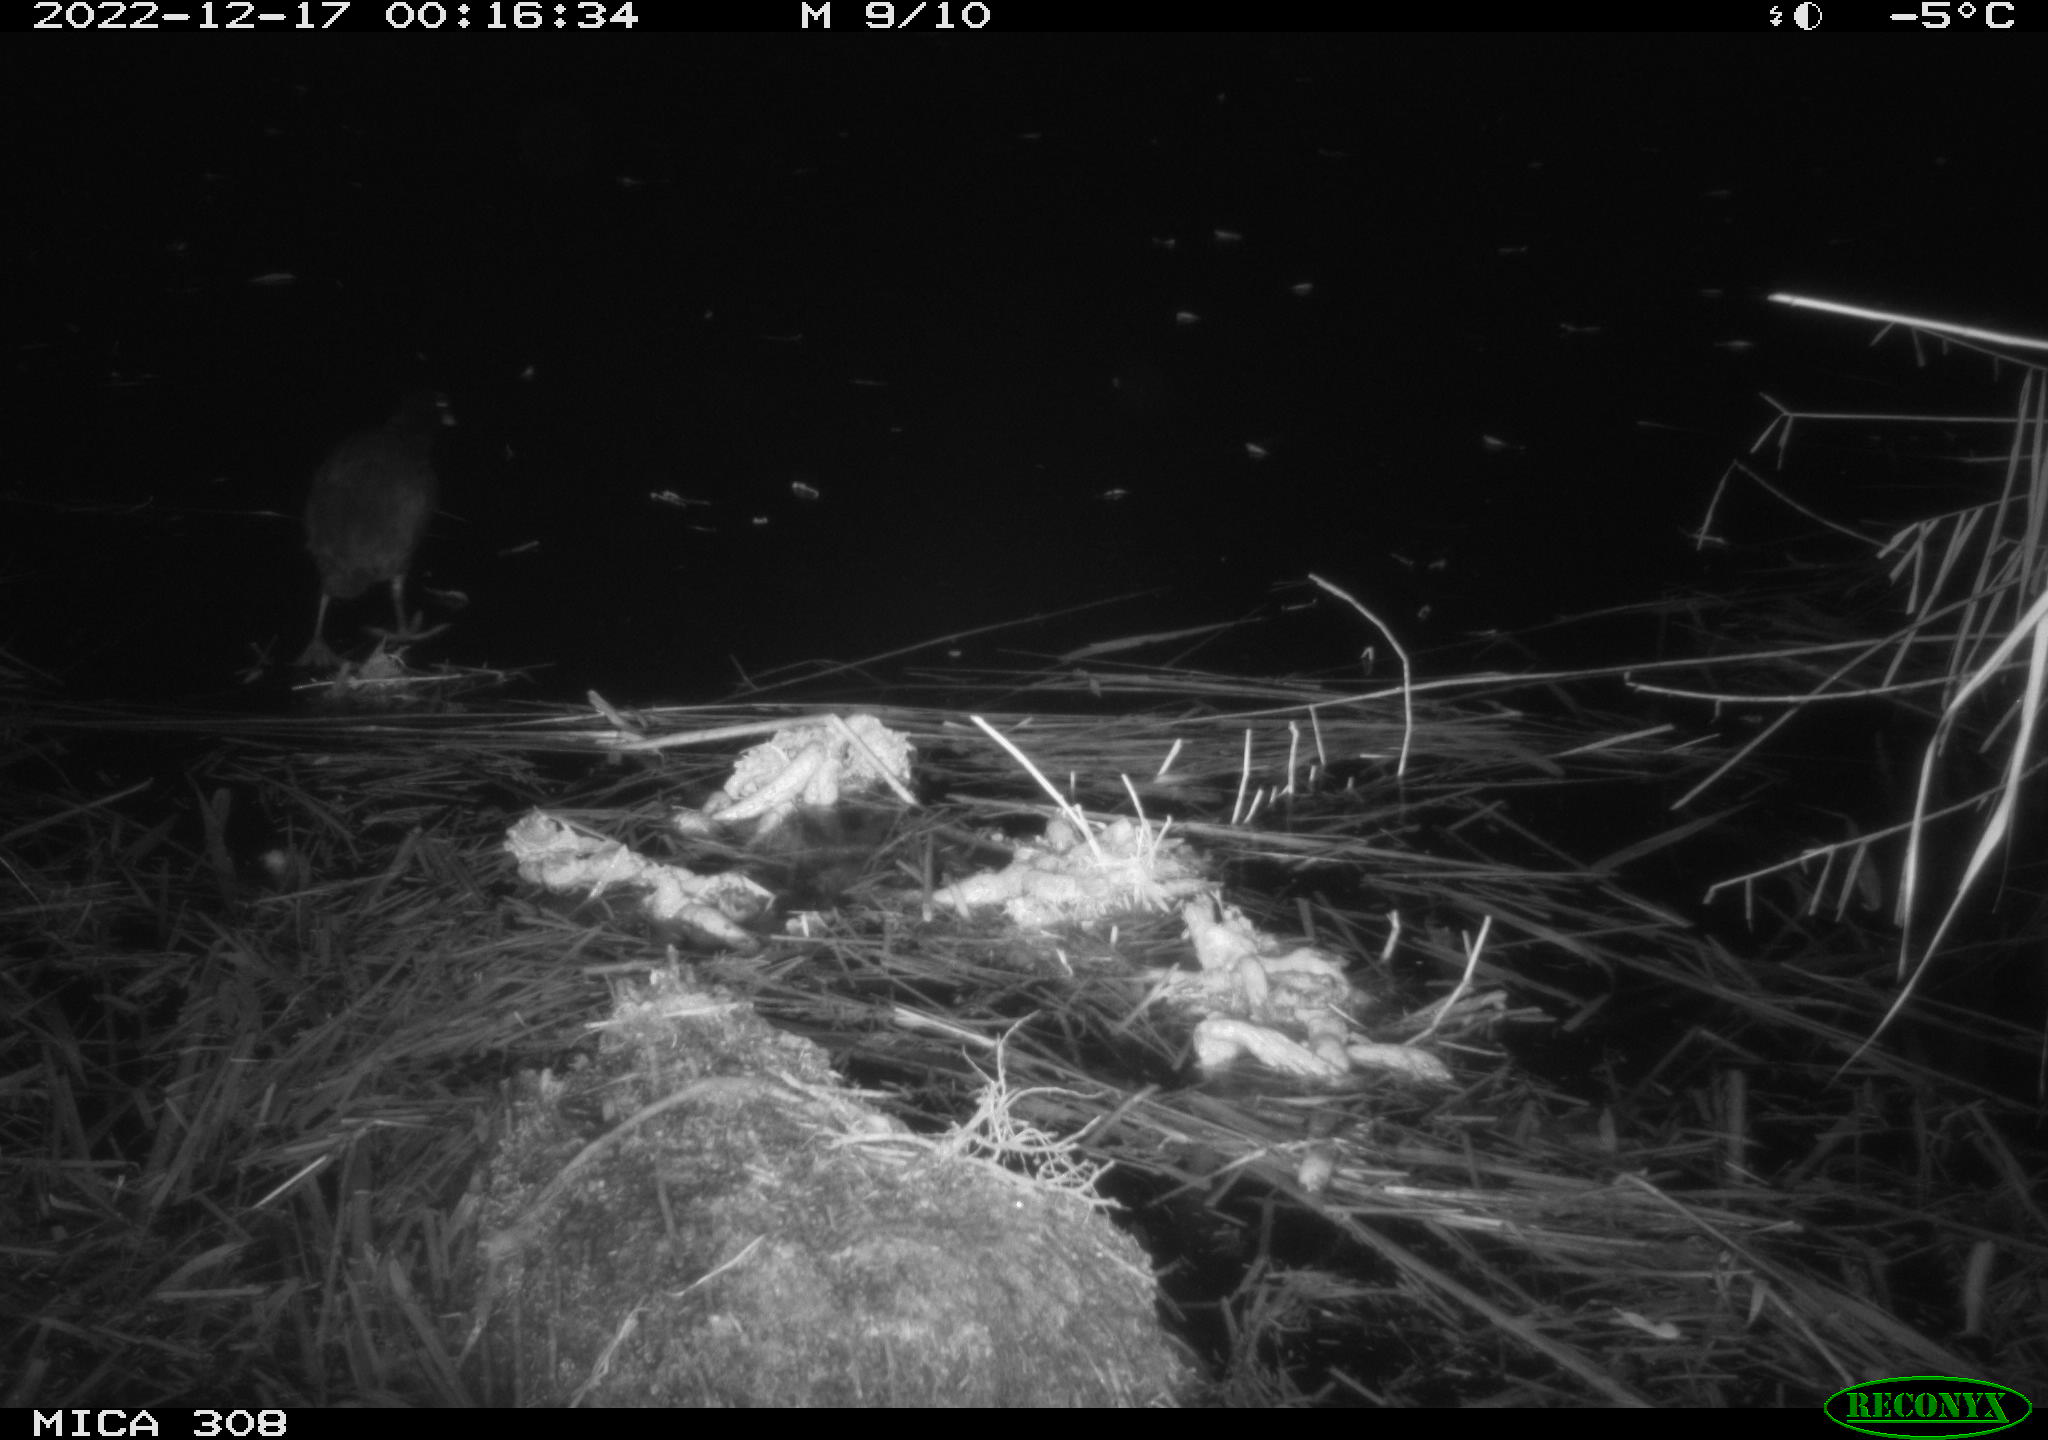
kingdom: Animalia
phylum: Chordata
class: Mammalia
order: Rodentia
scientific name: Rodentia
